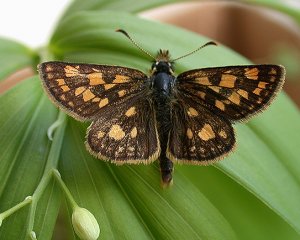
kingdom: Animalia
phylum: Arthropoda
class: Insecta
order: Lepidoptera
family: Hesperiidae
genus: Carterocephalus
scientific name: Carterocephalus palaemon
